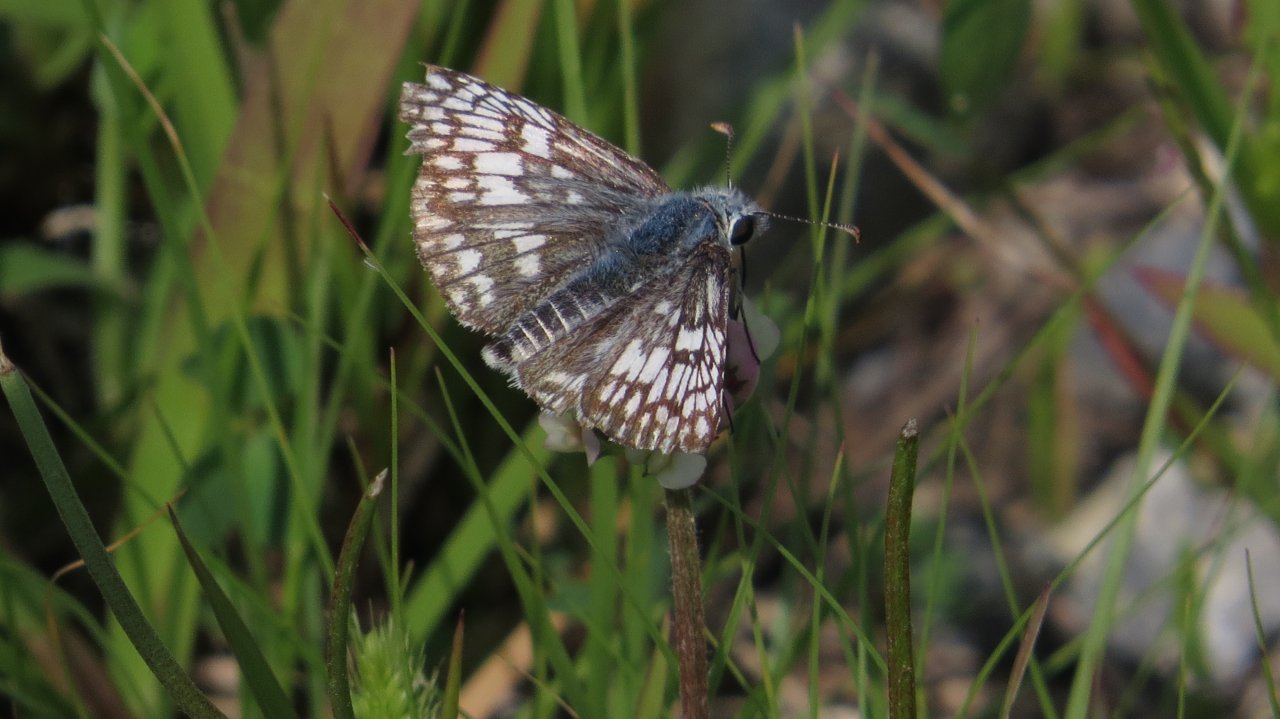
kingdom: Animalia
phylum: Arthropoda
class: Insecta
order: Lepidoptera
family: Hesperiidae
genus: Pyrgus
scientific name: Pyrgus communis
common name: Common Checkered-Skipper
